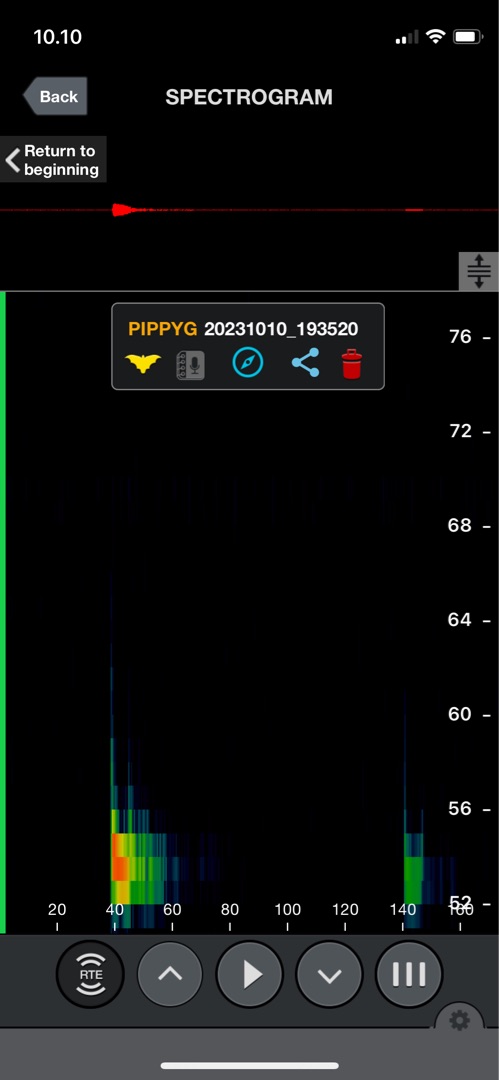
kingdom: Animalia
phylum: Chordata
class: Mammalia
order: Chiroptera
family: Vespertilionidae
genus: Pipistrellus
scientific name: Pipistrellus pygmaeus
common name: Dværgflagermus
